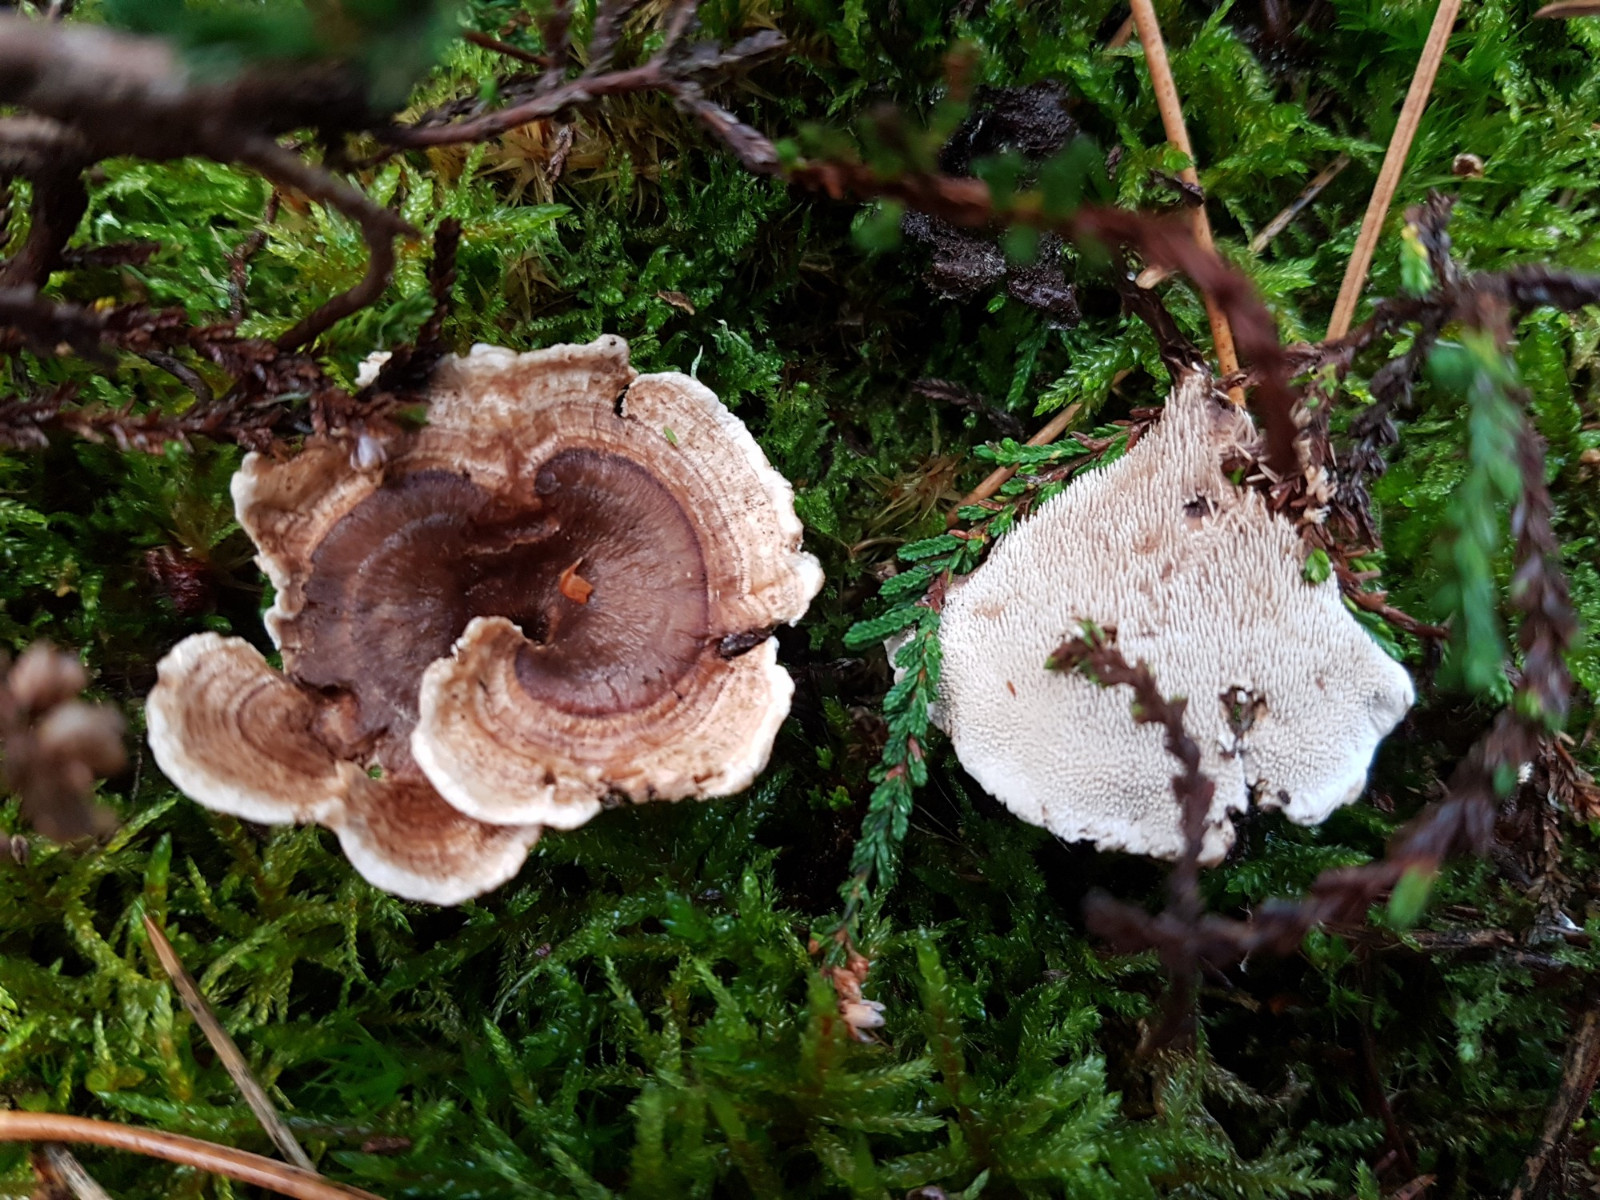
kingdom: Fungi
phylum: Basidiomycota
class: Agaricomycetes
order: Thelephorales
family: Thelephoraceae
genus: Phellodon
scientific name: Phellodon tomentosus
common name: tragtformet duftpigsvamp
